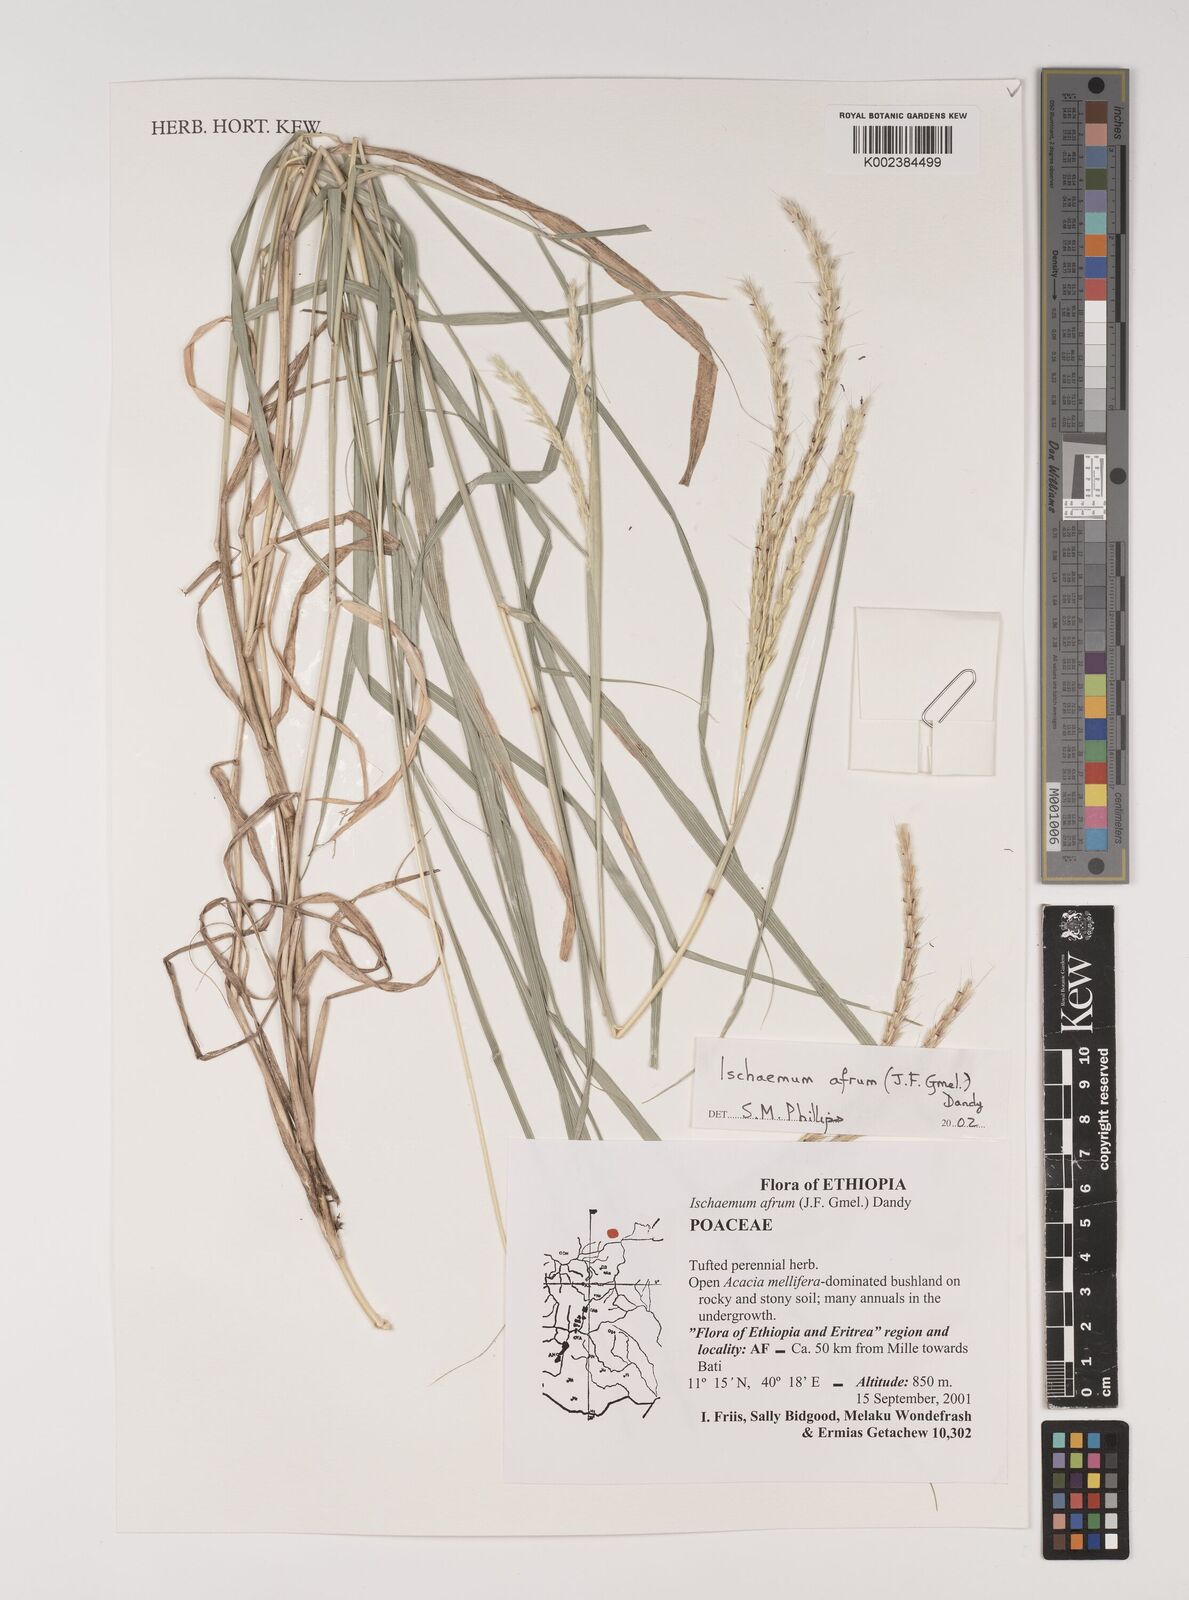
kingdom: Plantae
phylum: Tracheophyta
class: Liliopsida
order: Poales
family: Poaceae
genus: Ischaemum
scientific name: Ischaemum afrum
